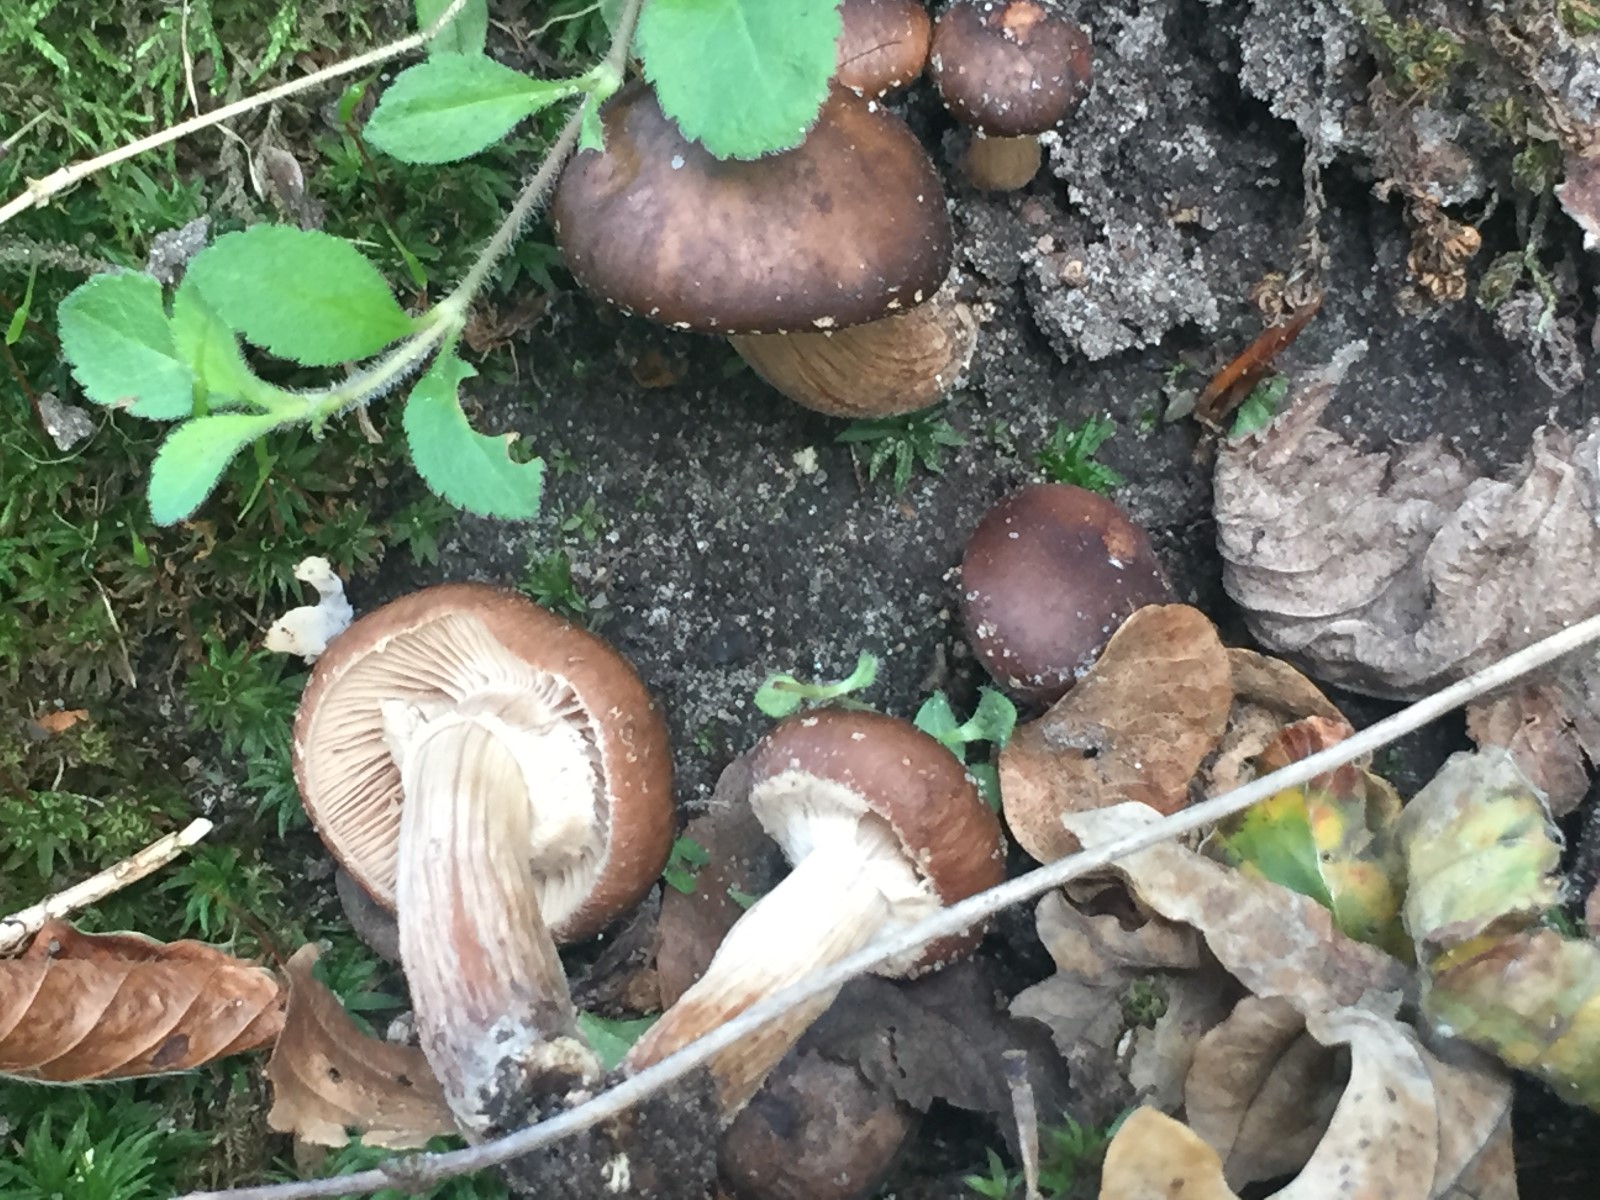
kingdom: Fungi
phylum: Basidiomycota
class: Agaricomycetes
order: Agaricales
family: Tubariaceae
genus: Cyclocybe
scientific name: Cyclocybe erebia
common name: mørk agerhat
